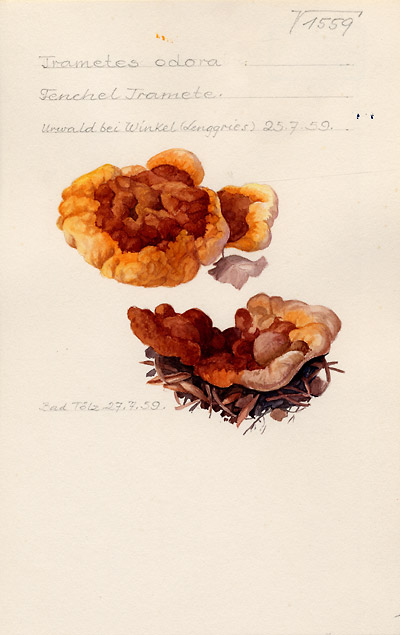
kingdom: Fungi
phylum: Basidiomycota
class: Agaricomycetes
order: Gloeophyllales
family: Gloeophyllaceae
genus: Gloeophyllum
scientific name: Gloeophyllum odoratum
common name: Anise mazegill
